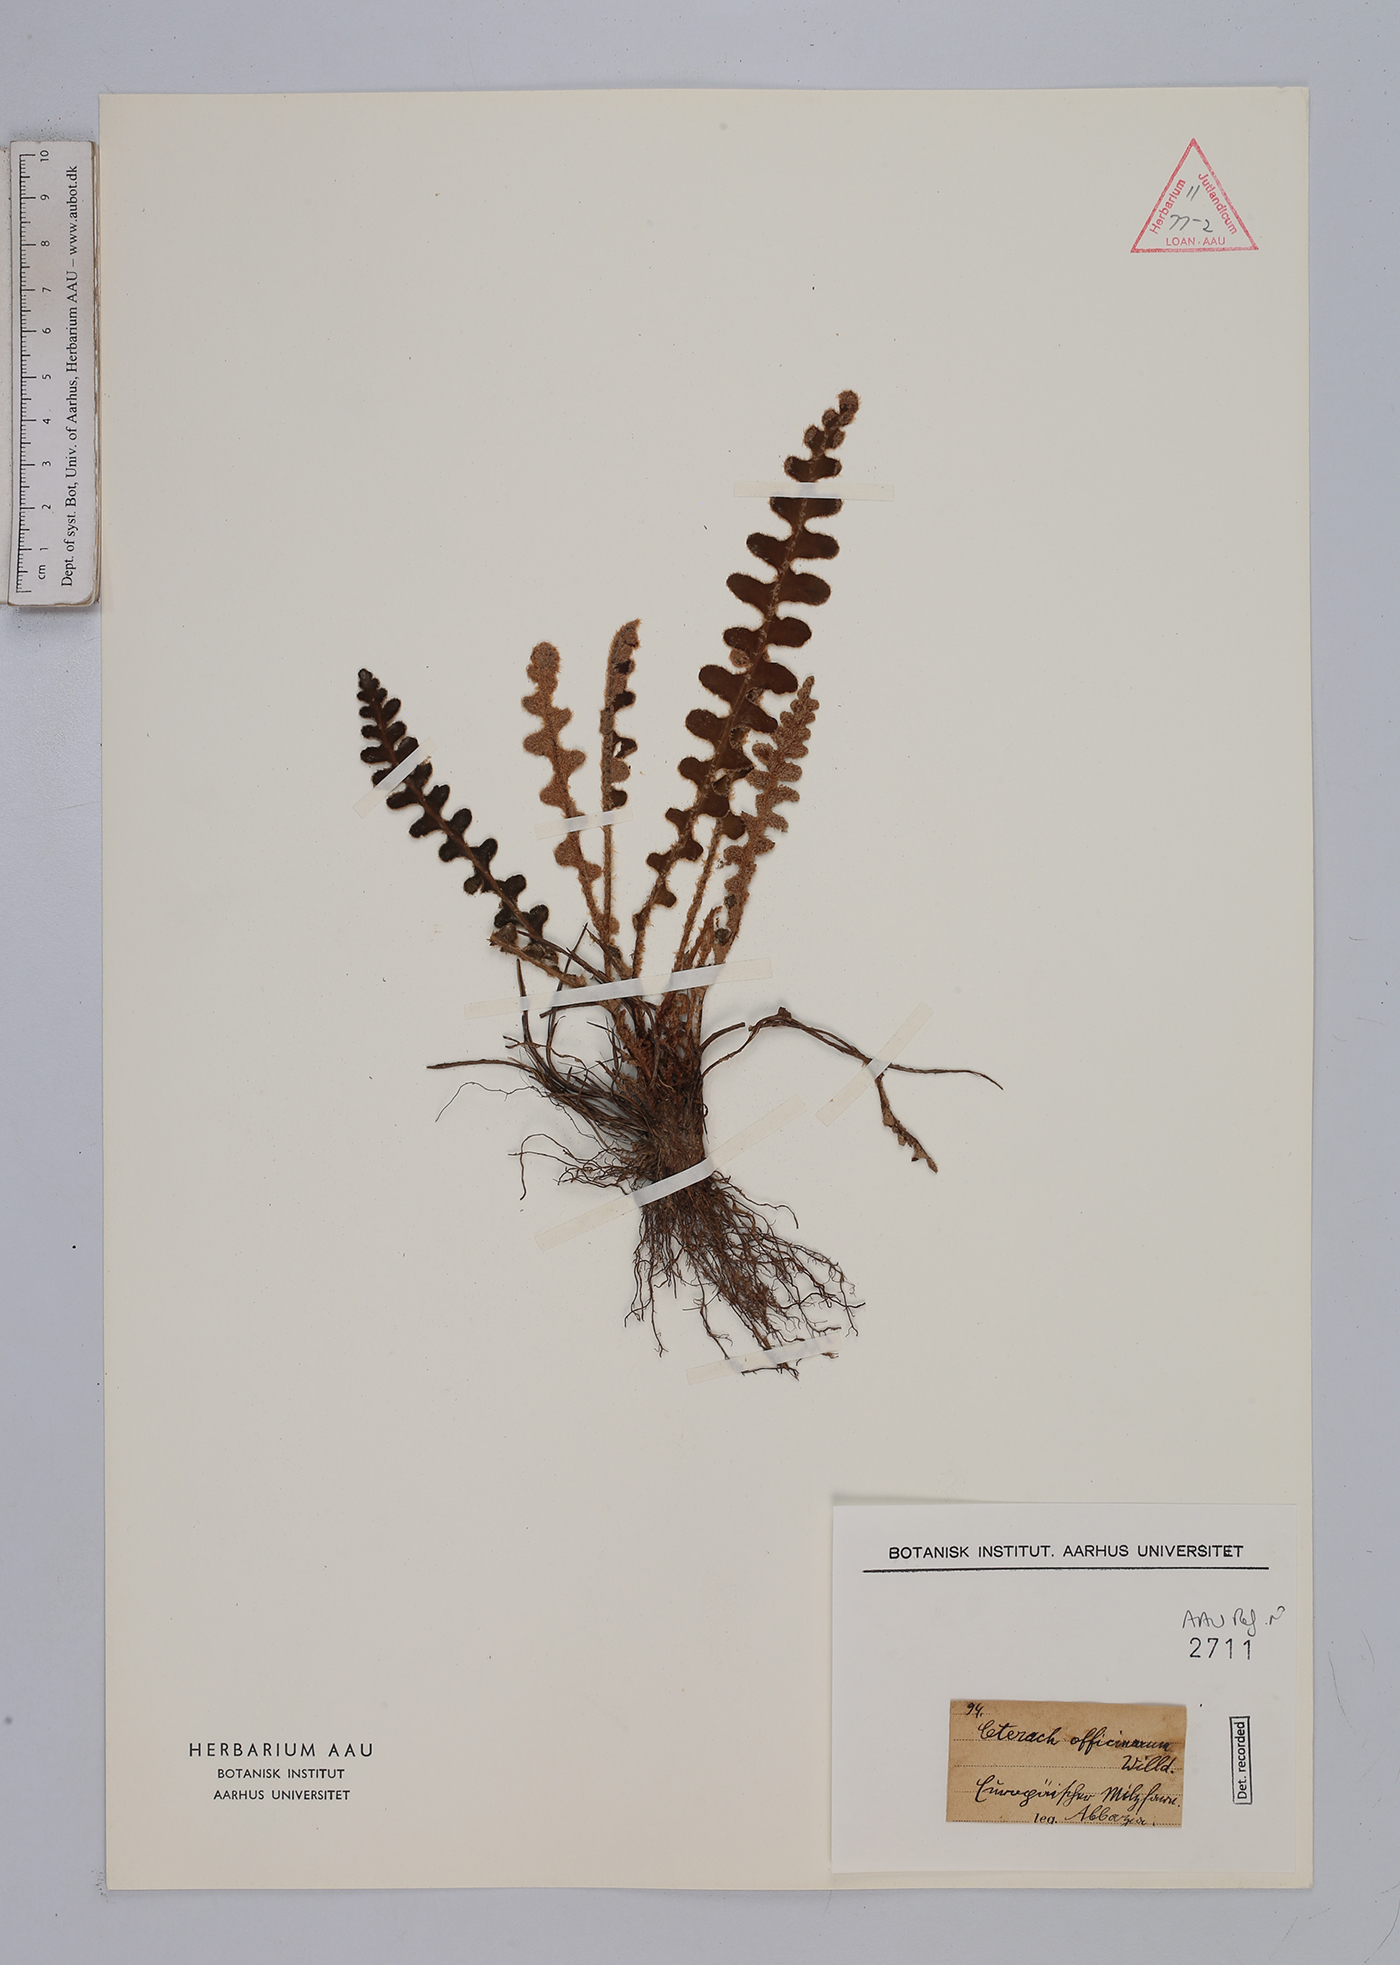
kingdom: Plantae
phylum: Tracheophyta
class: Polypodiopsida
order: Polypodiales
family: Aspleniaceae
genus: Asplenium
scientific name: Asplenium ceterach
